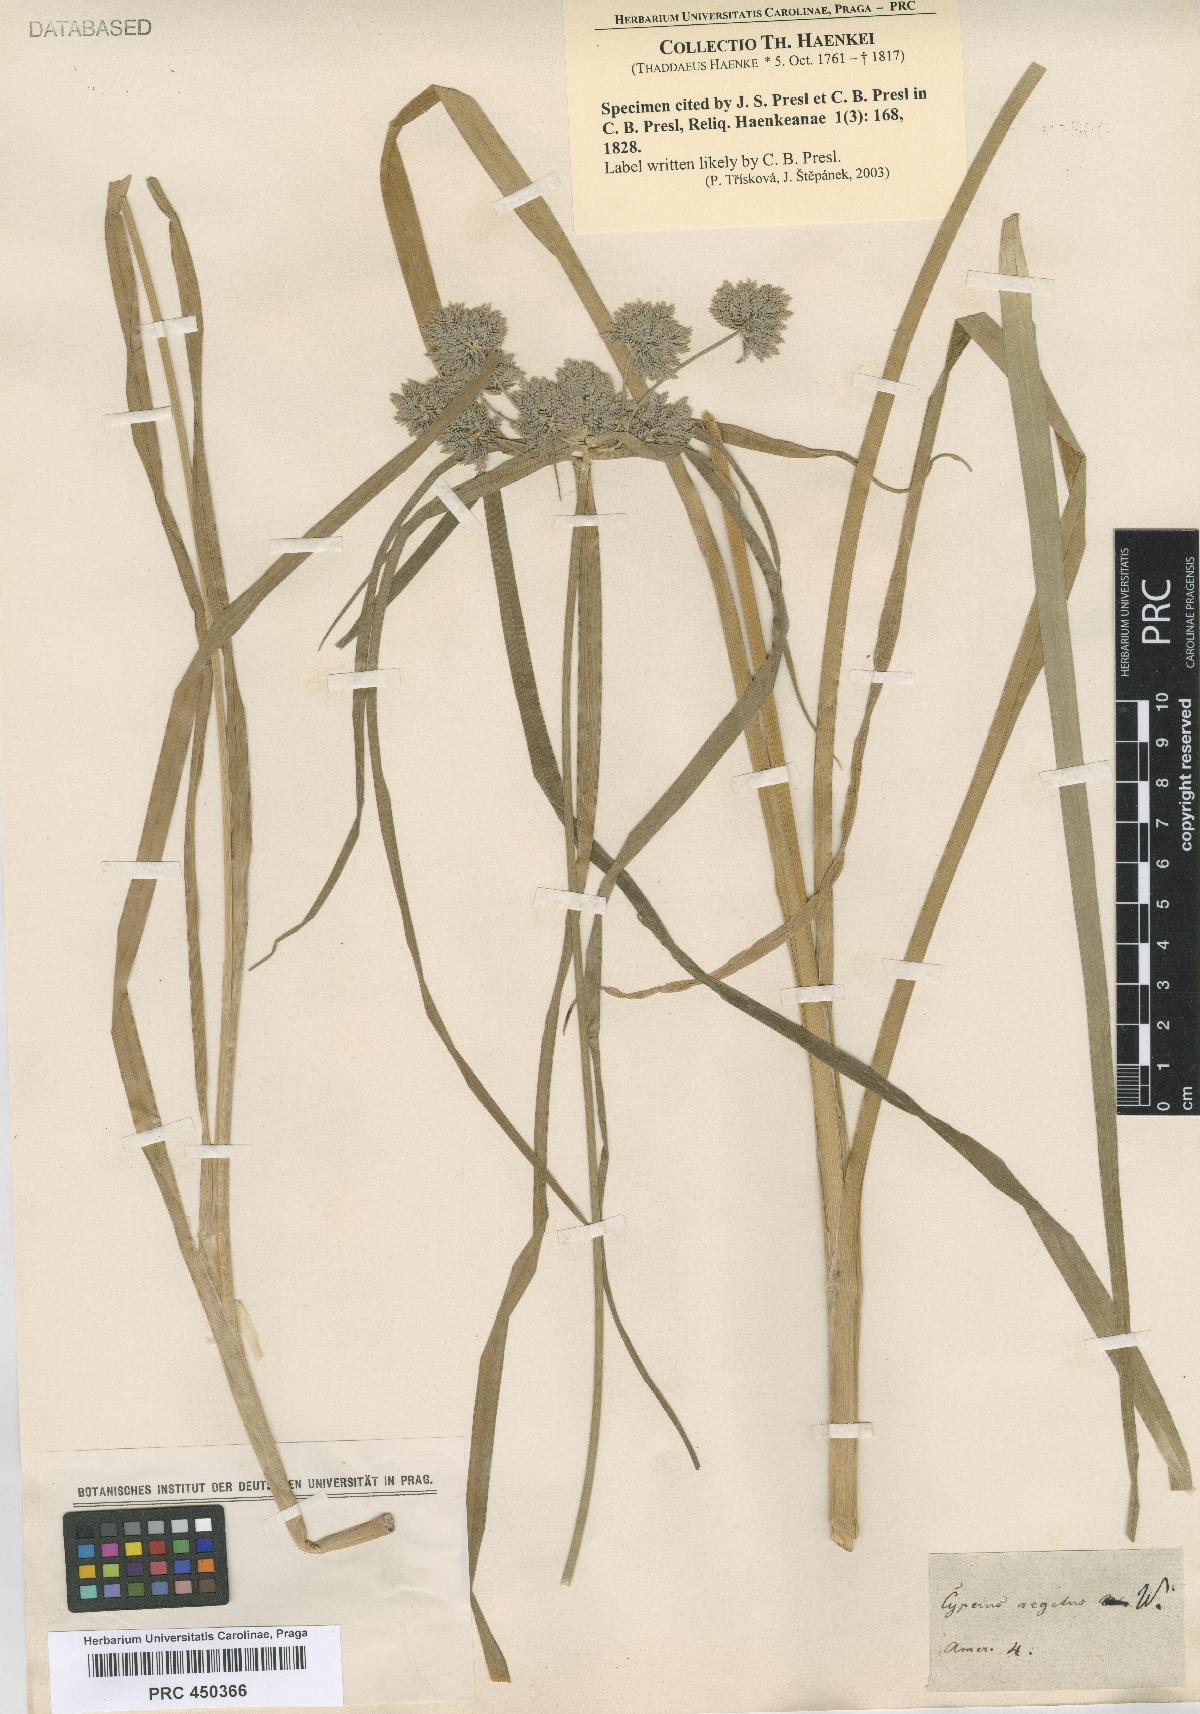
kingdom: Plantae
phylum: Tracheophyta
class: Liliopsida
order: Poales
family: Cyperaceae
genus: Cyperus
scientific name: Cyperus
